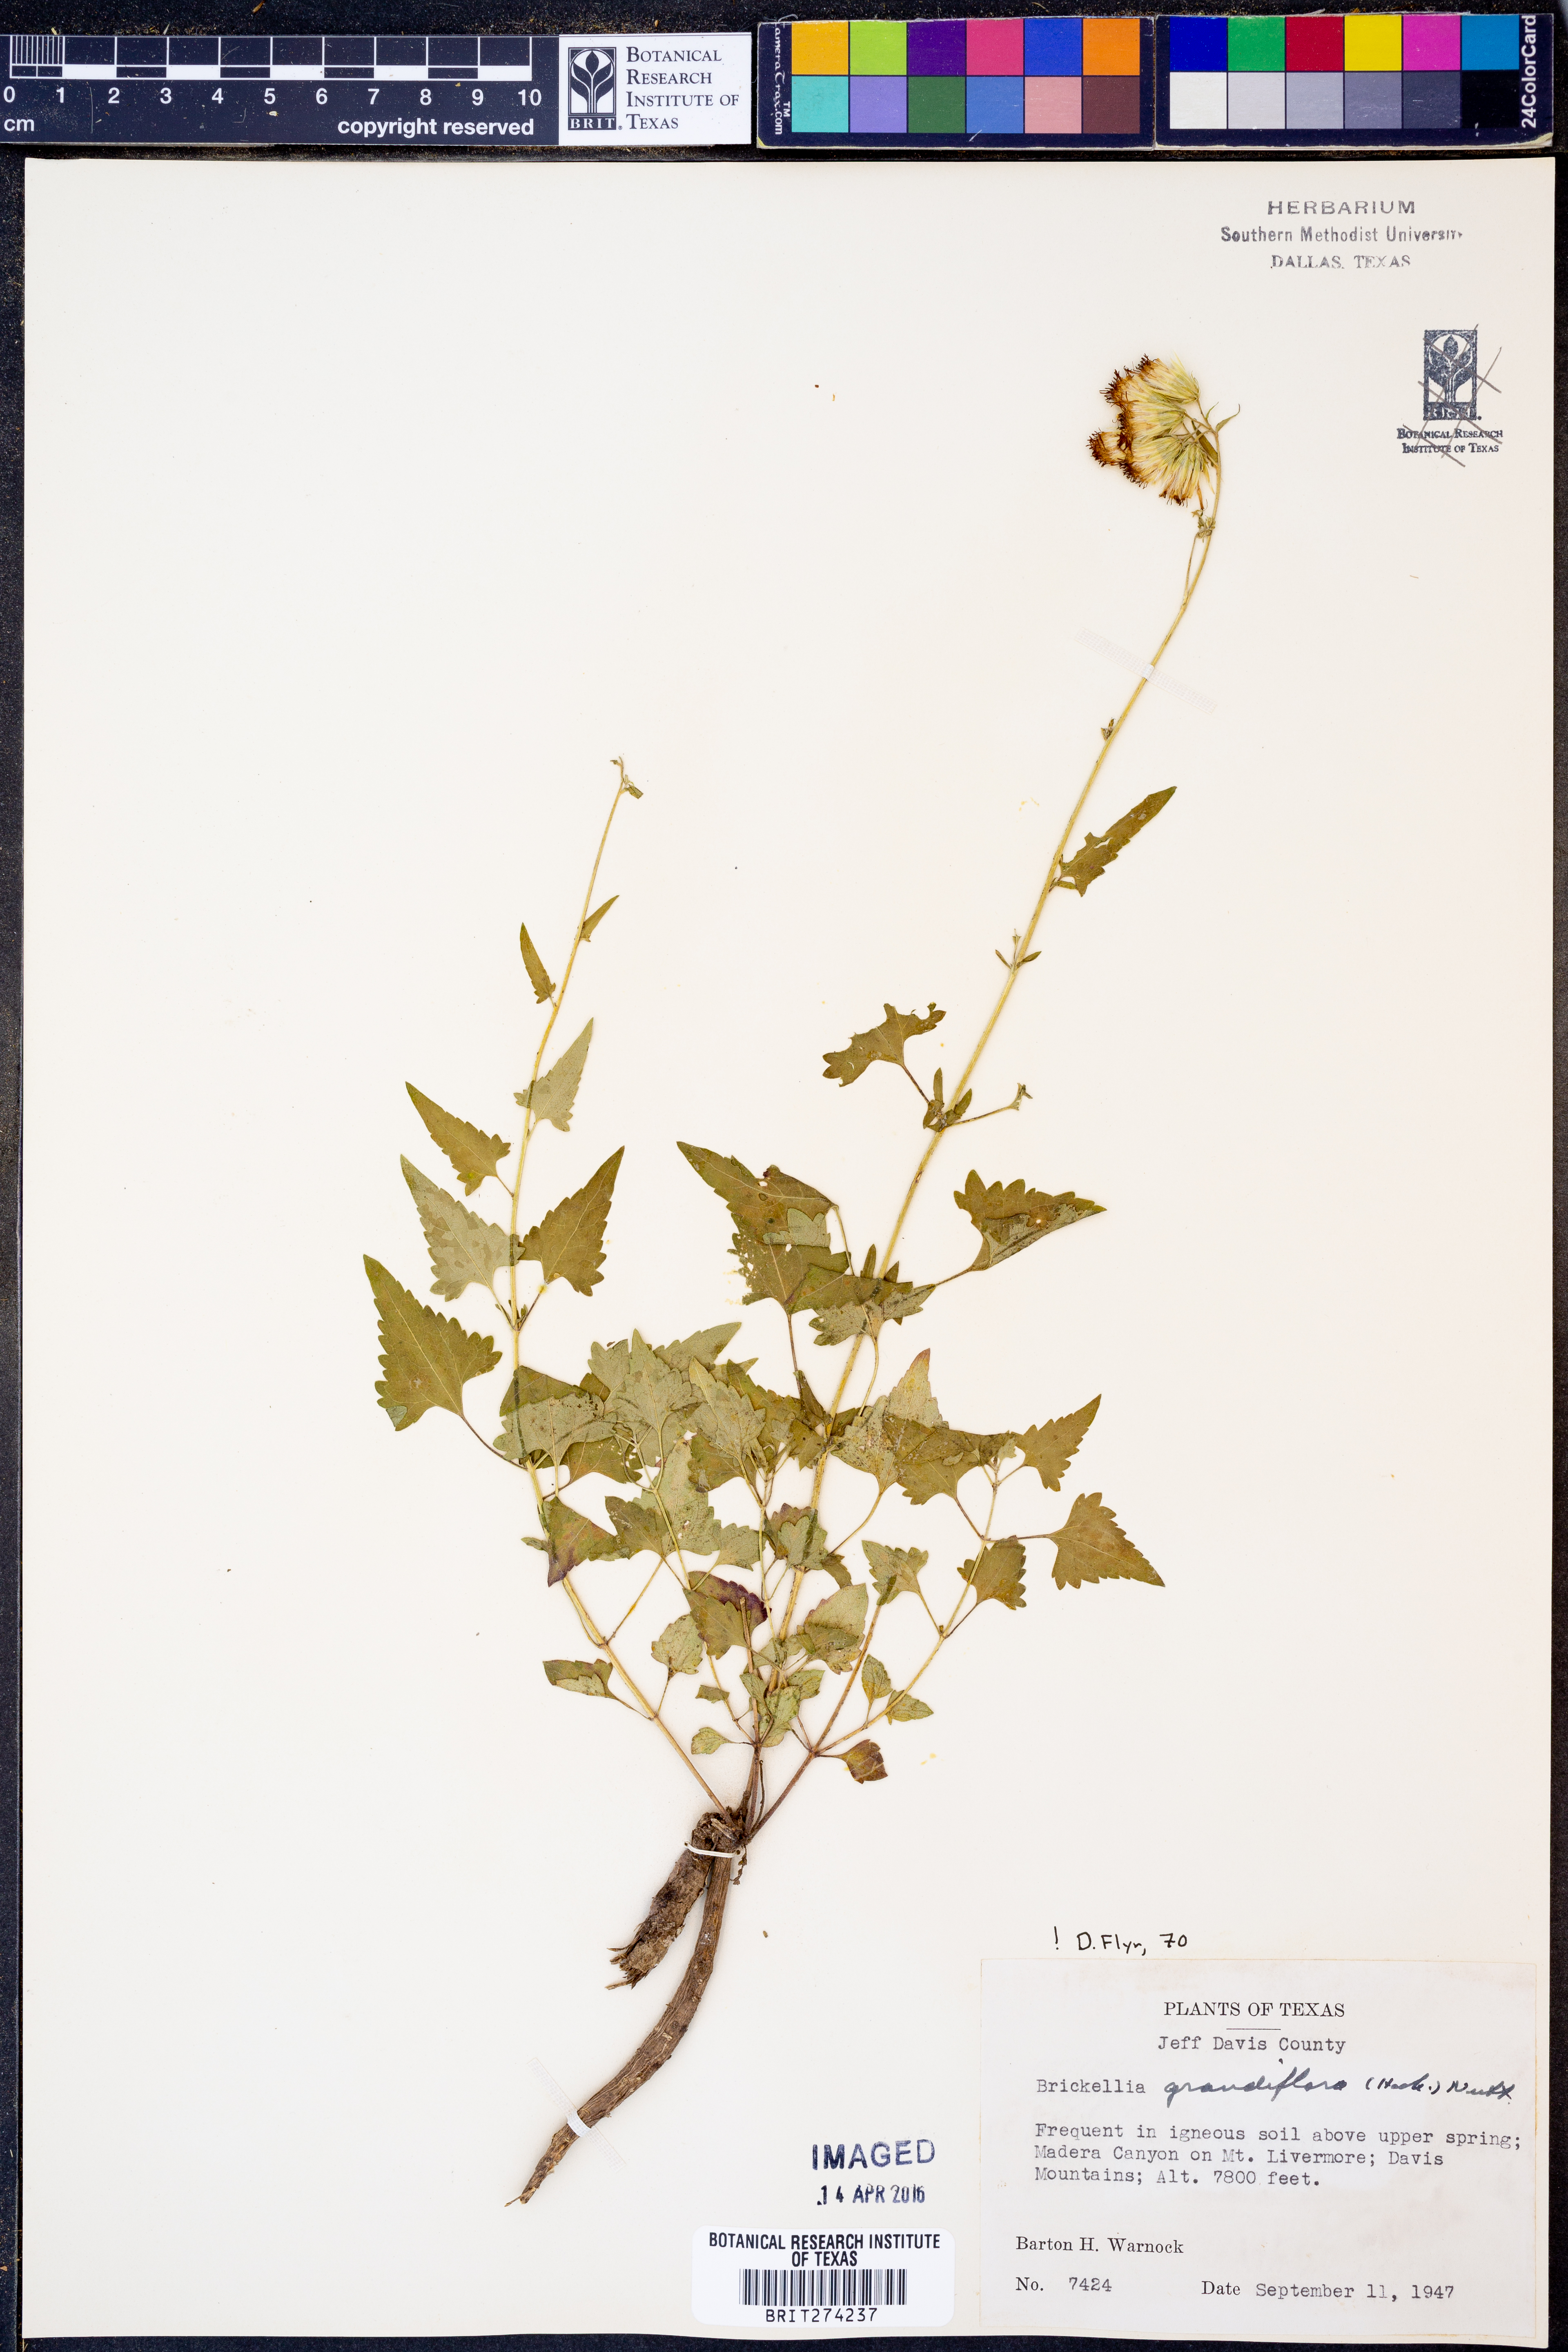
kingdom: Plantae
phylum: Tracheophyta
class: Magnoliopsida
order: Asterales
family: Asteraceae
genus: Brickellia
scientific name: Brickellia grandiflora
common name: Large-flowered brickellia
